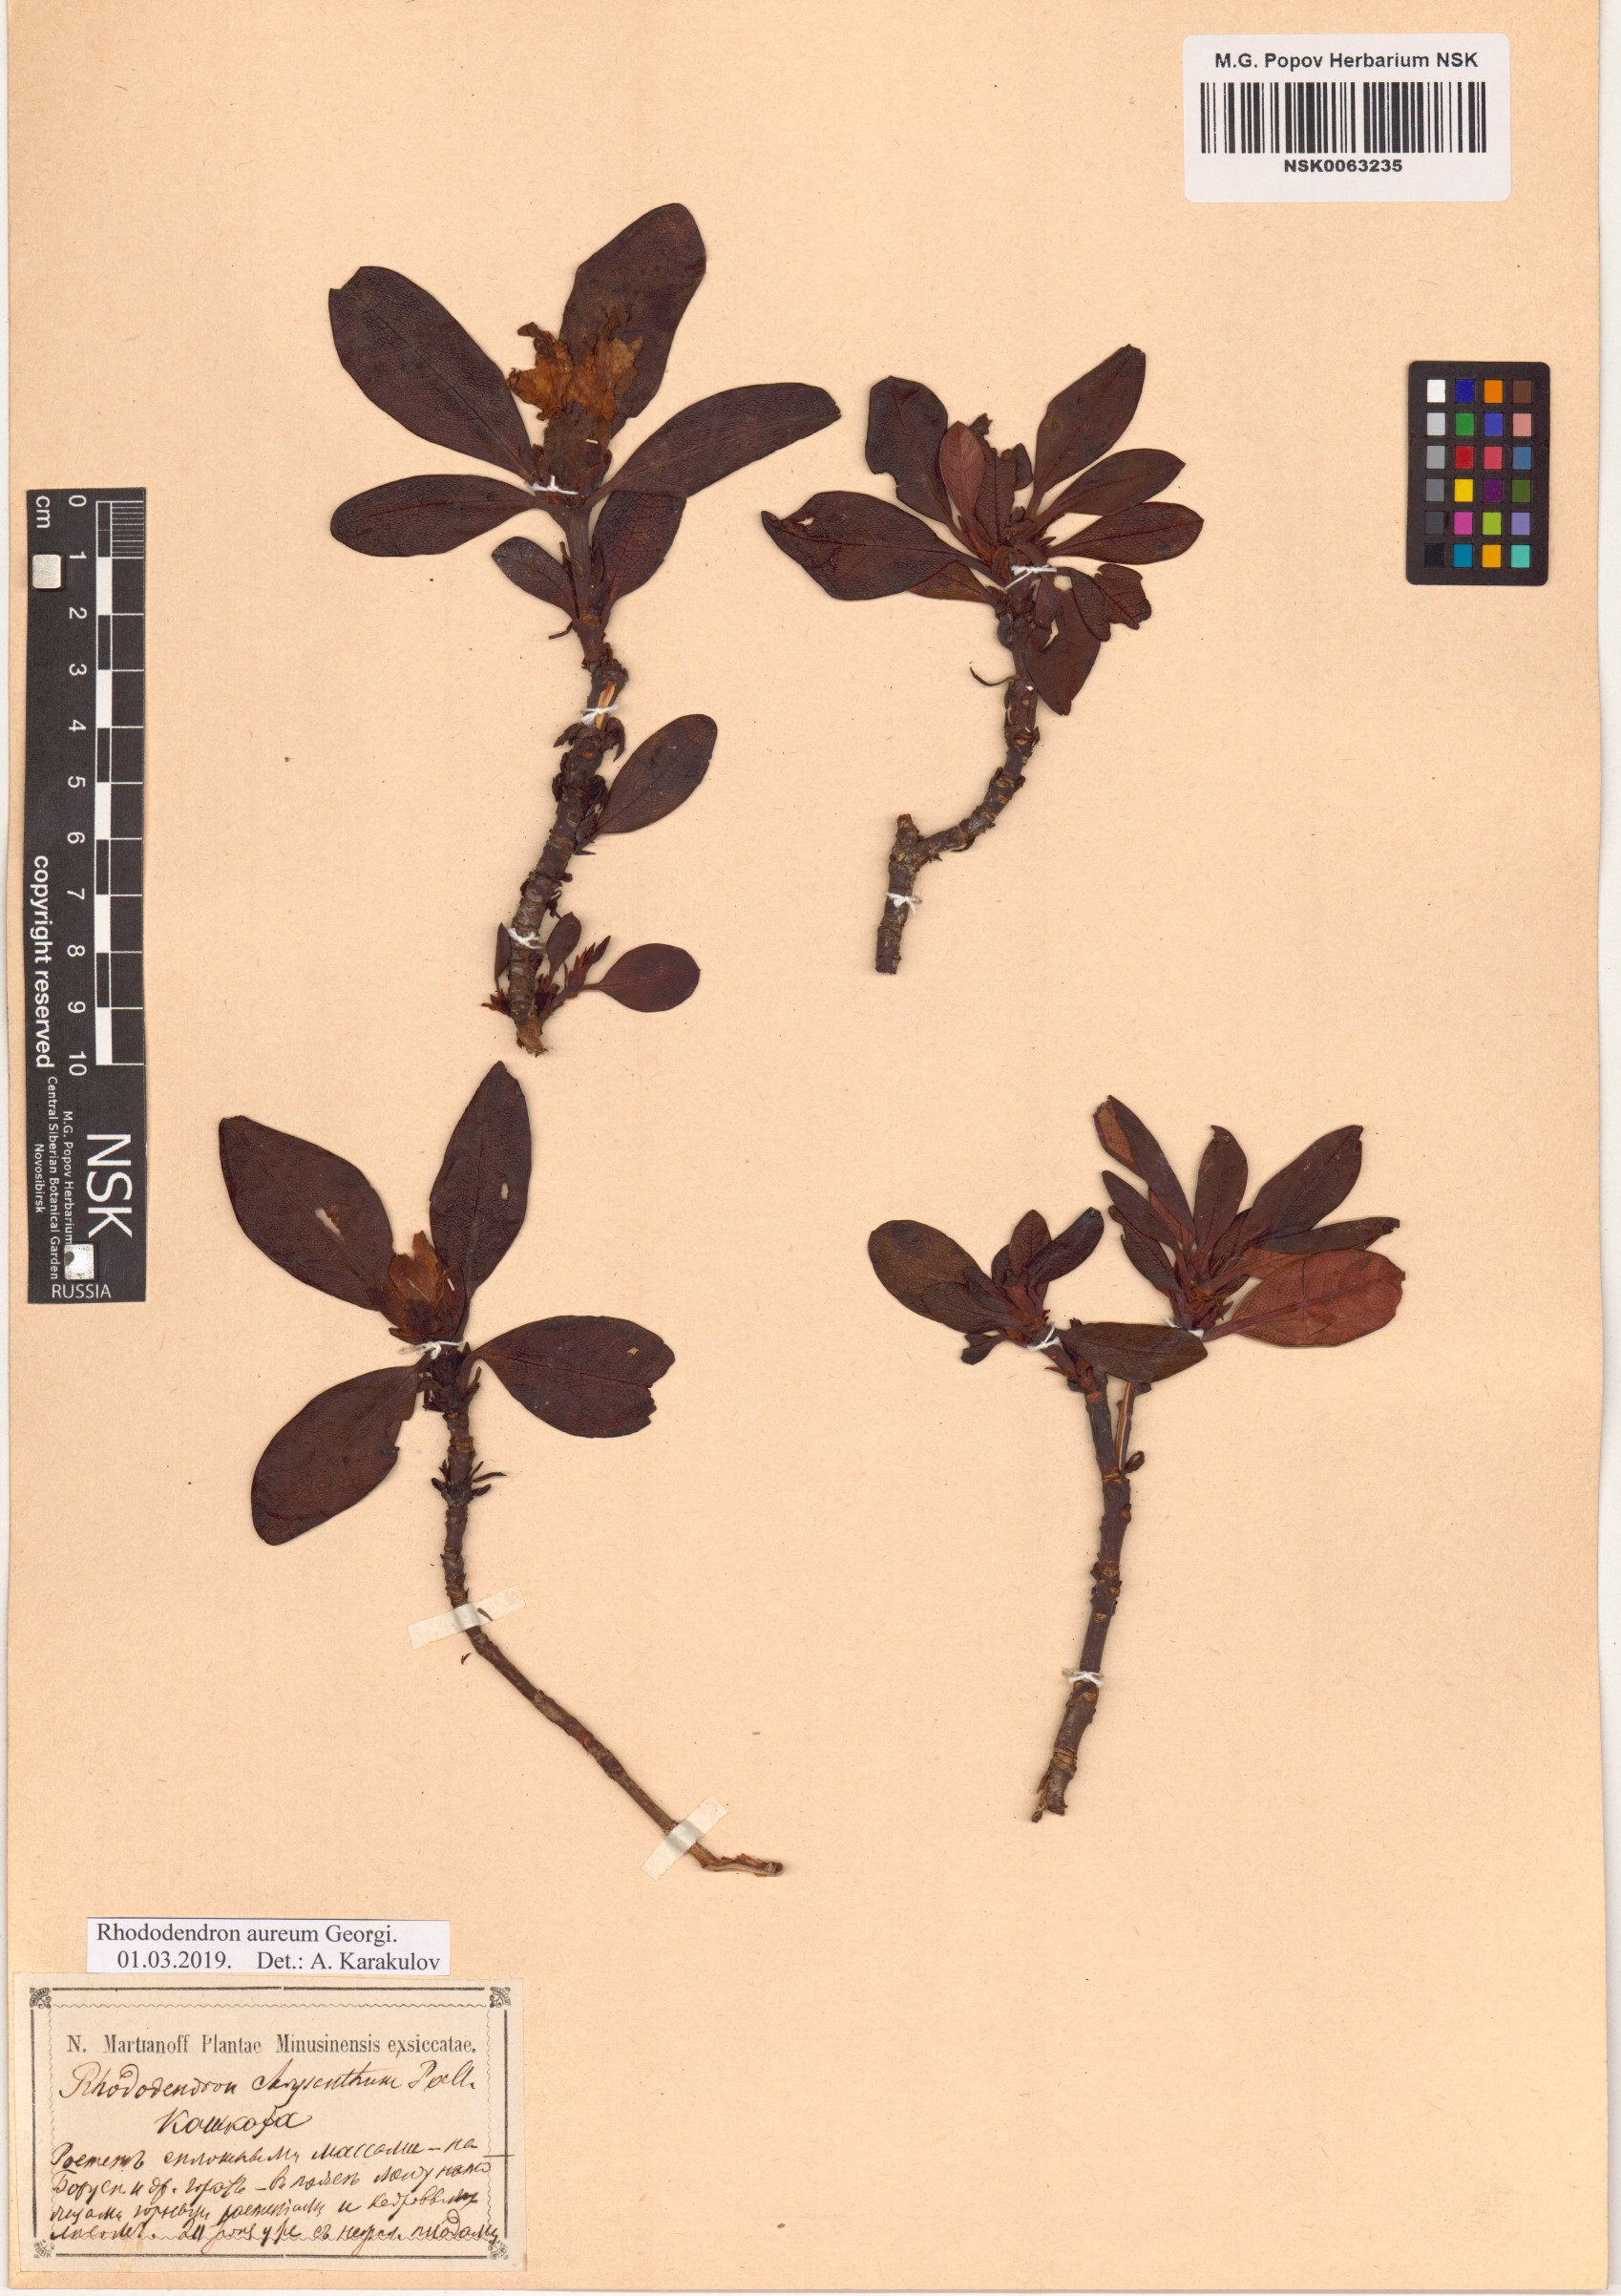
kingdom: Plantae
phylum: Tracheophyta
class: Magnoliopsida
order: Ericales
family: Ericaceae
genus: Rhododendron
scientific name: Rhododendron aureum
